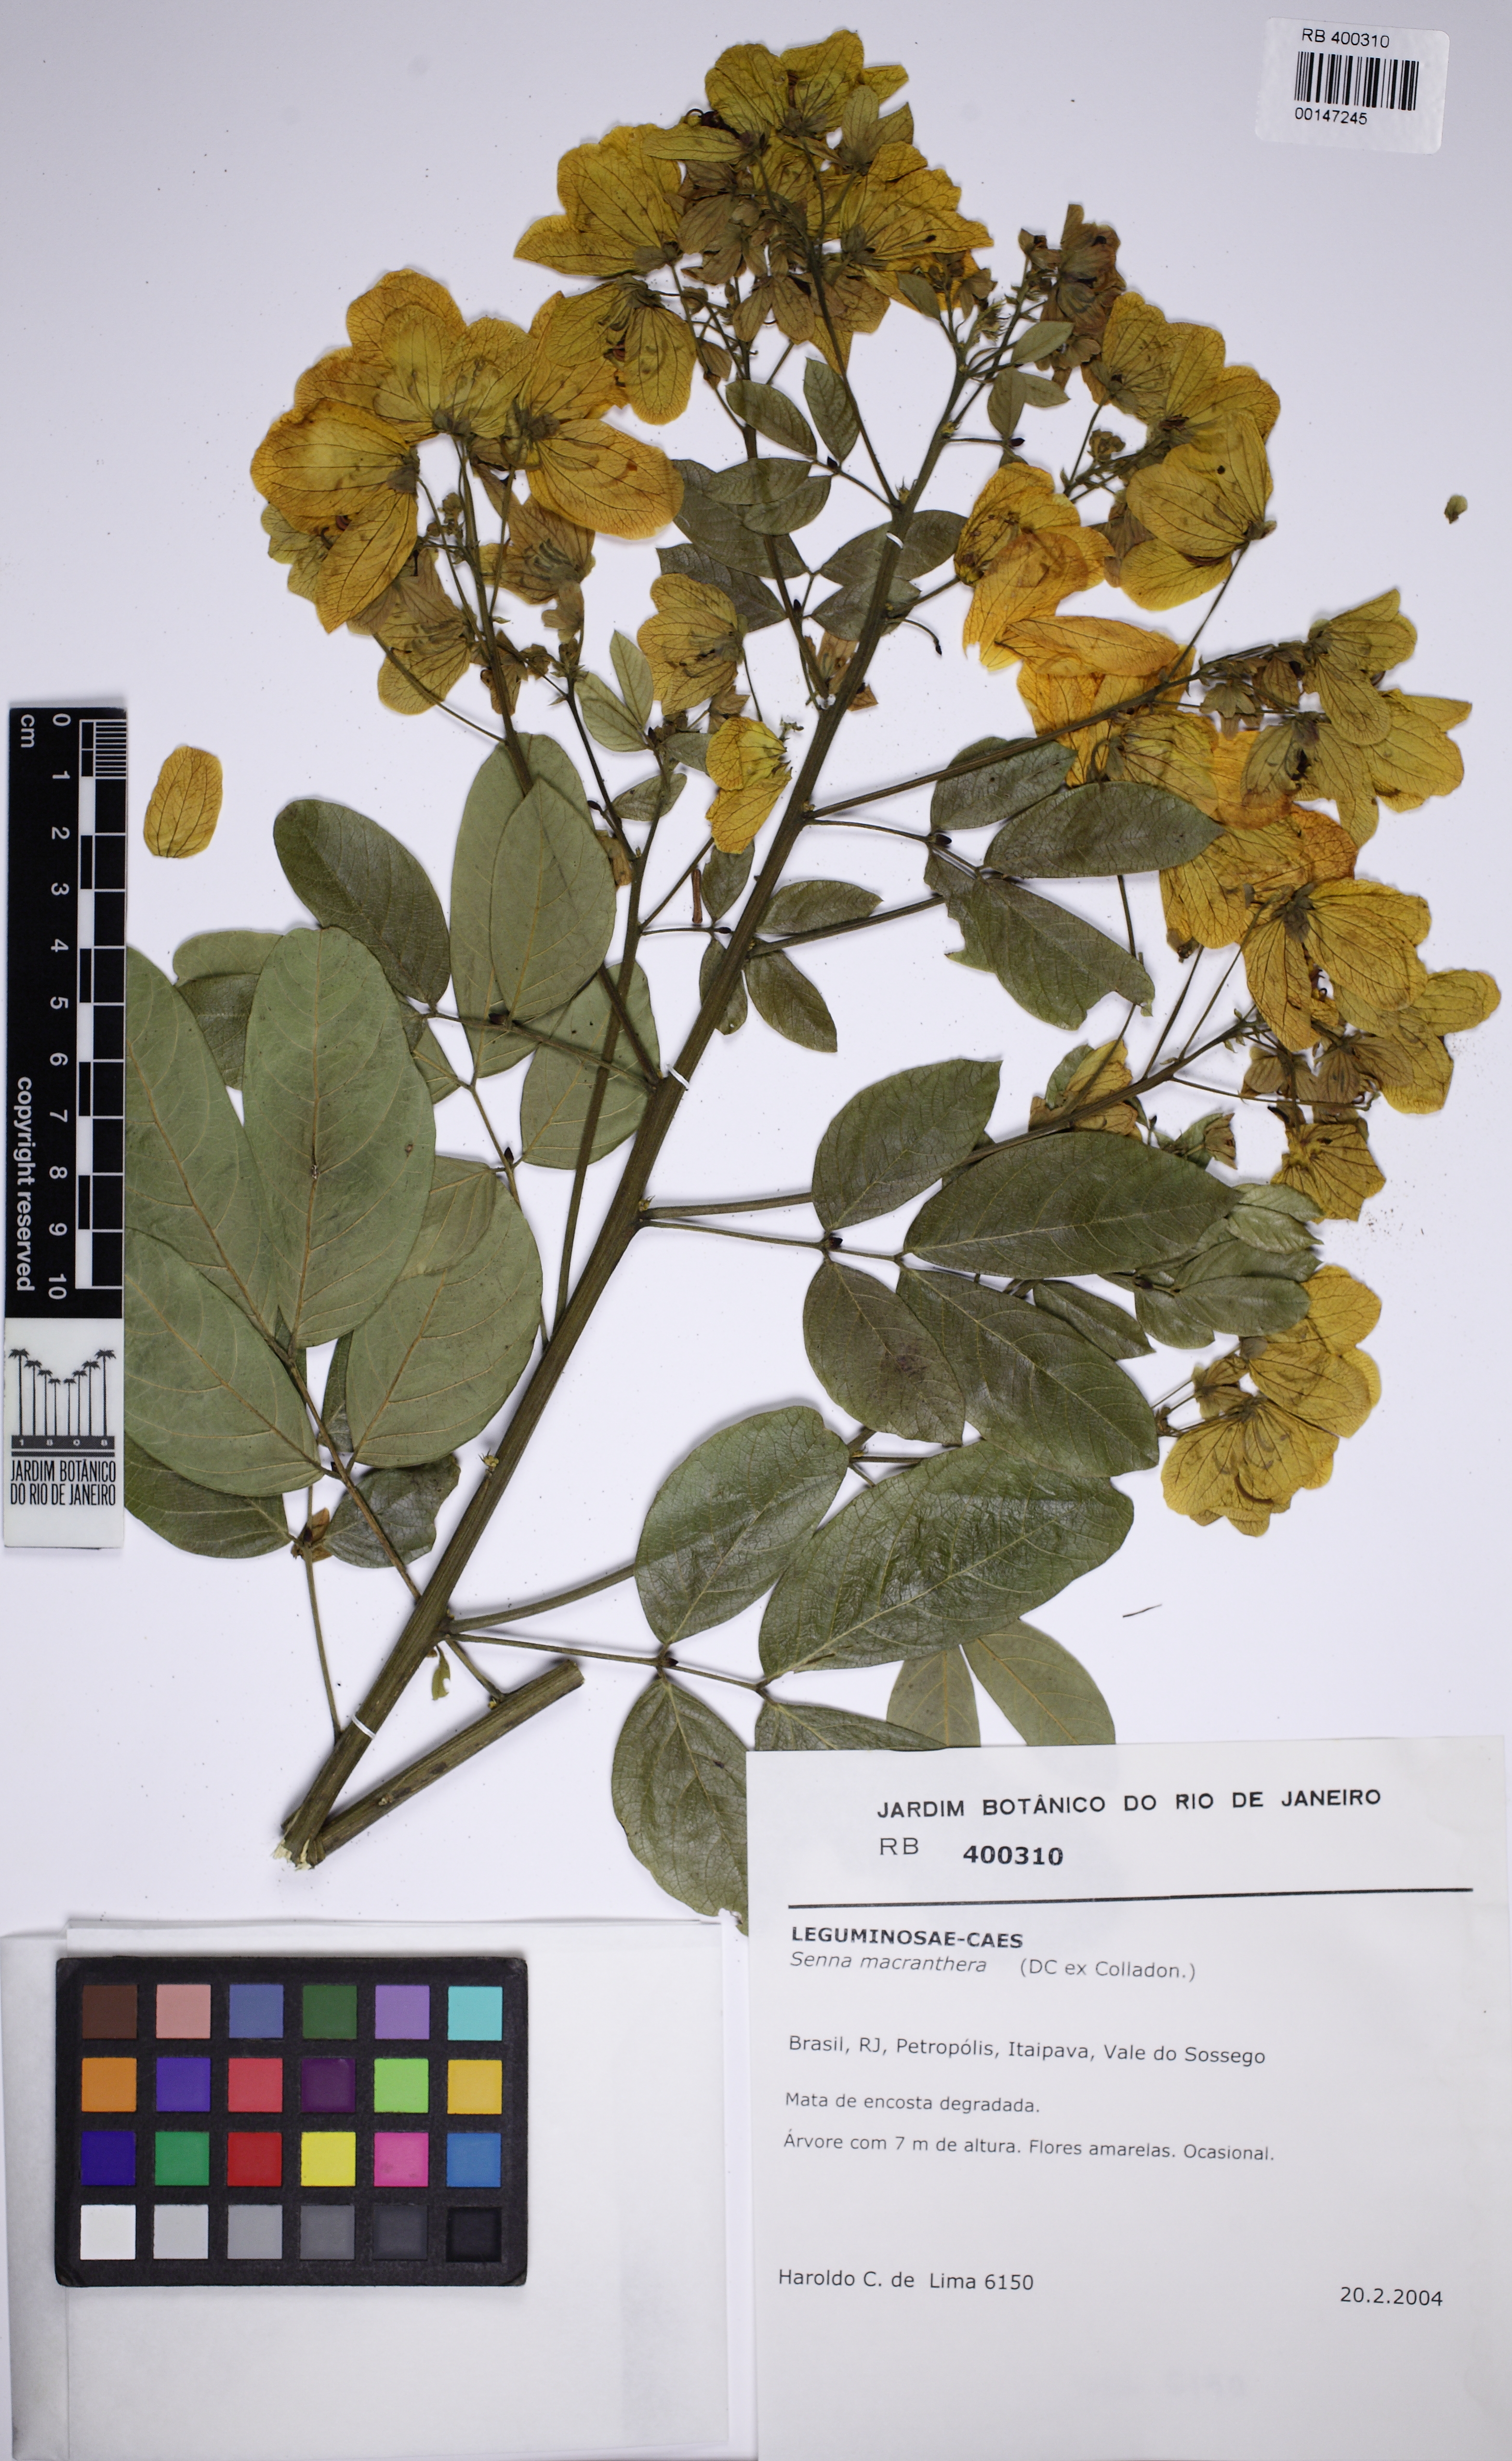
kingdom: Plantae
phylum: Tracheophyta
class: Magnoliopsida
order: Fabales
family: Fabaceae
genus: Senna
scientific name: Senna macranthera
